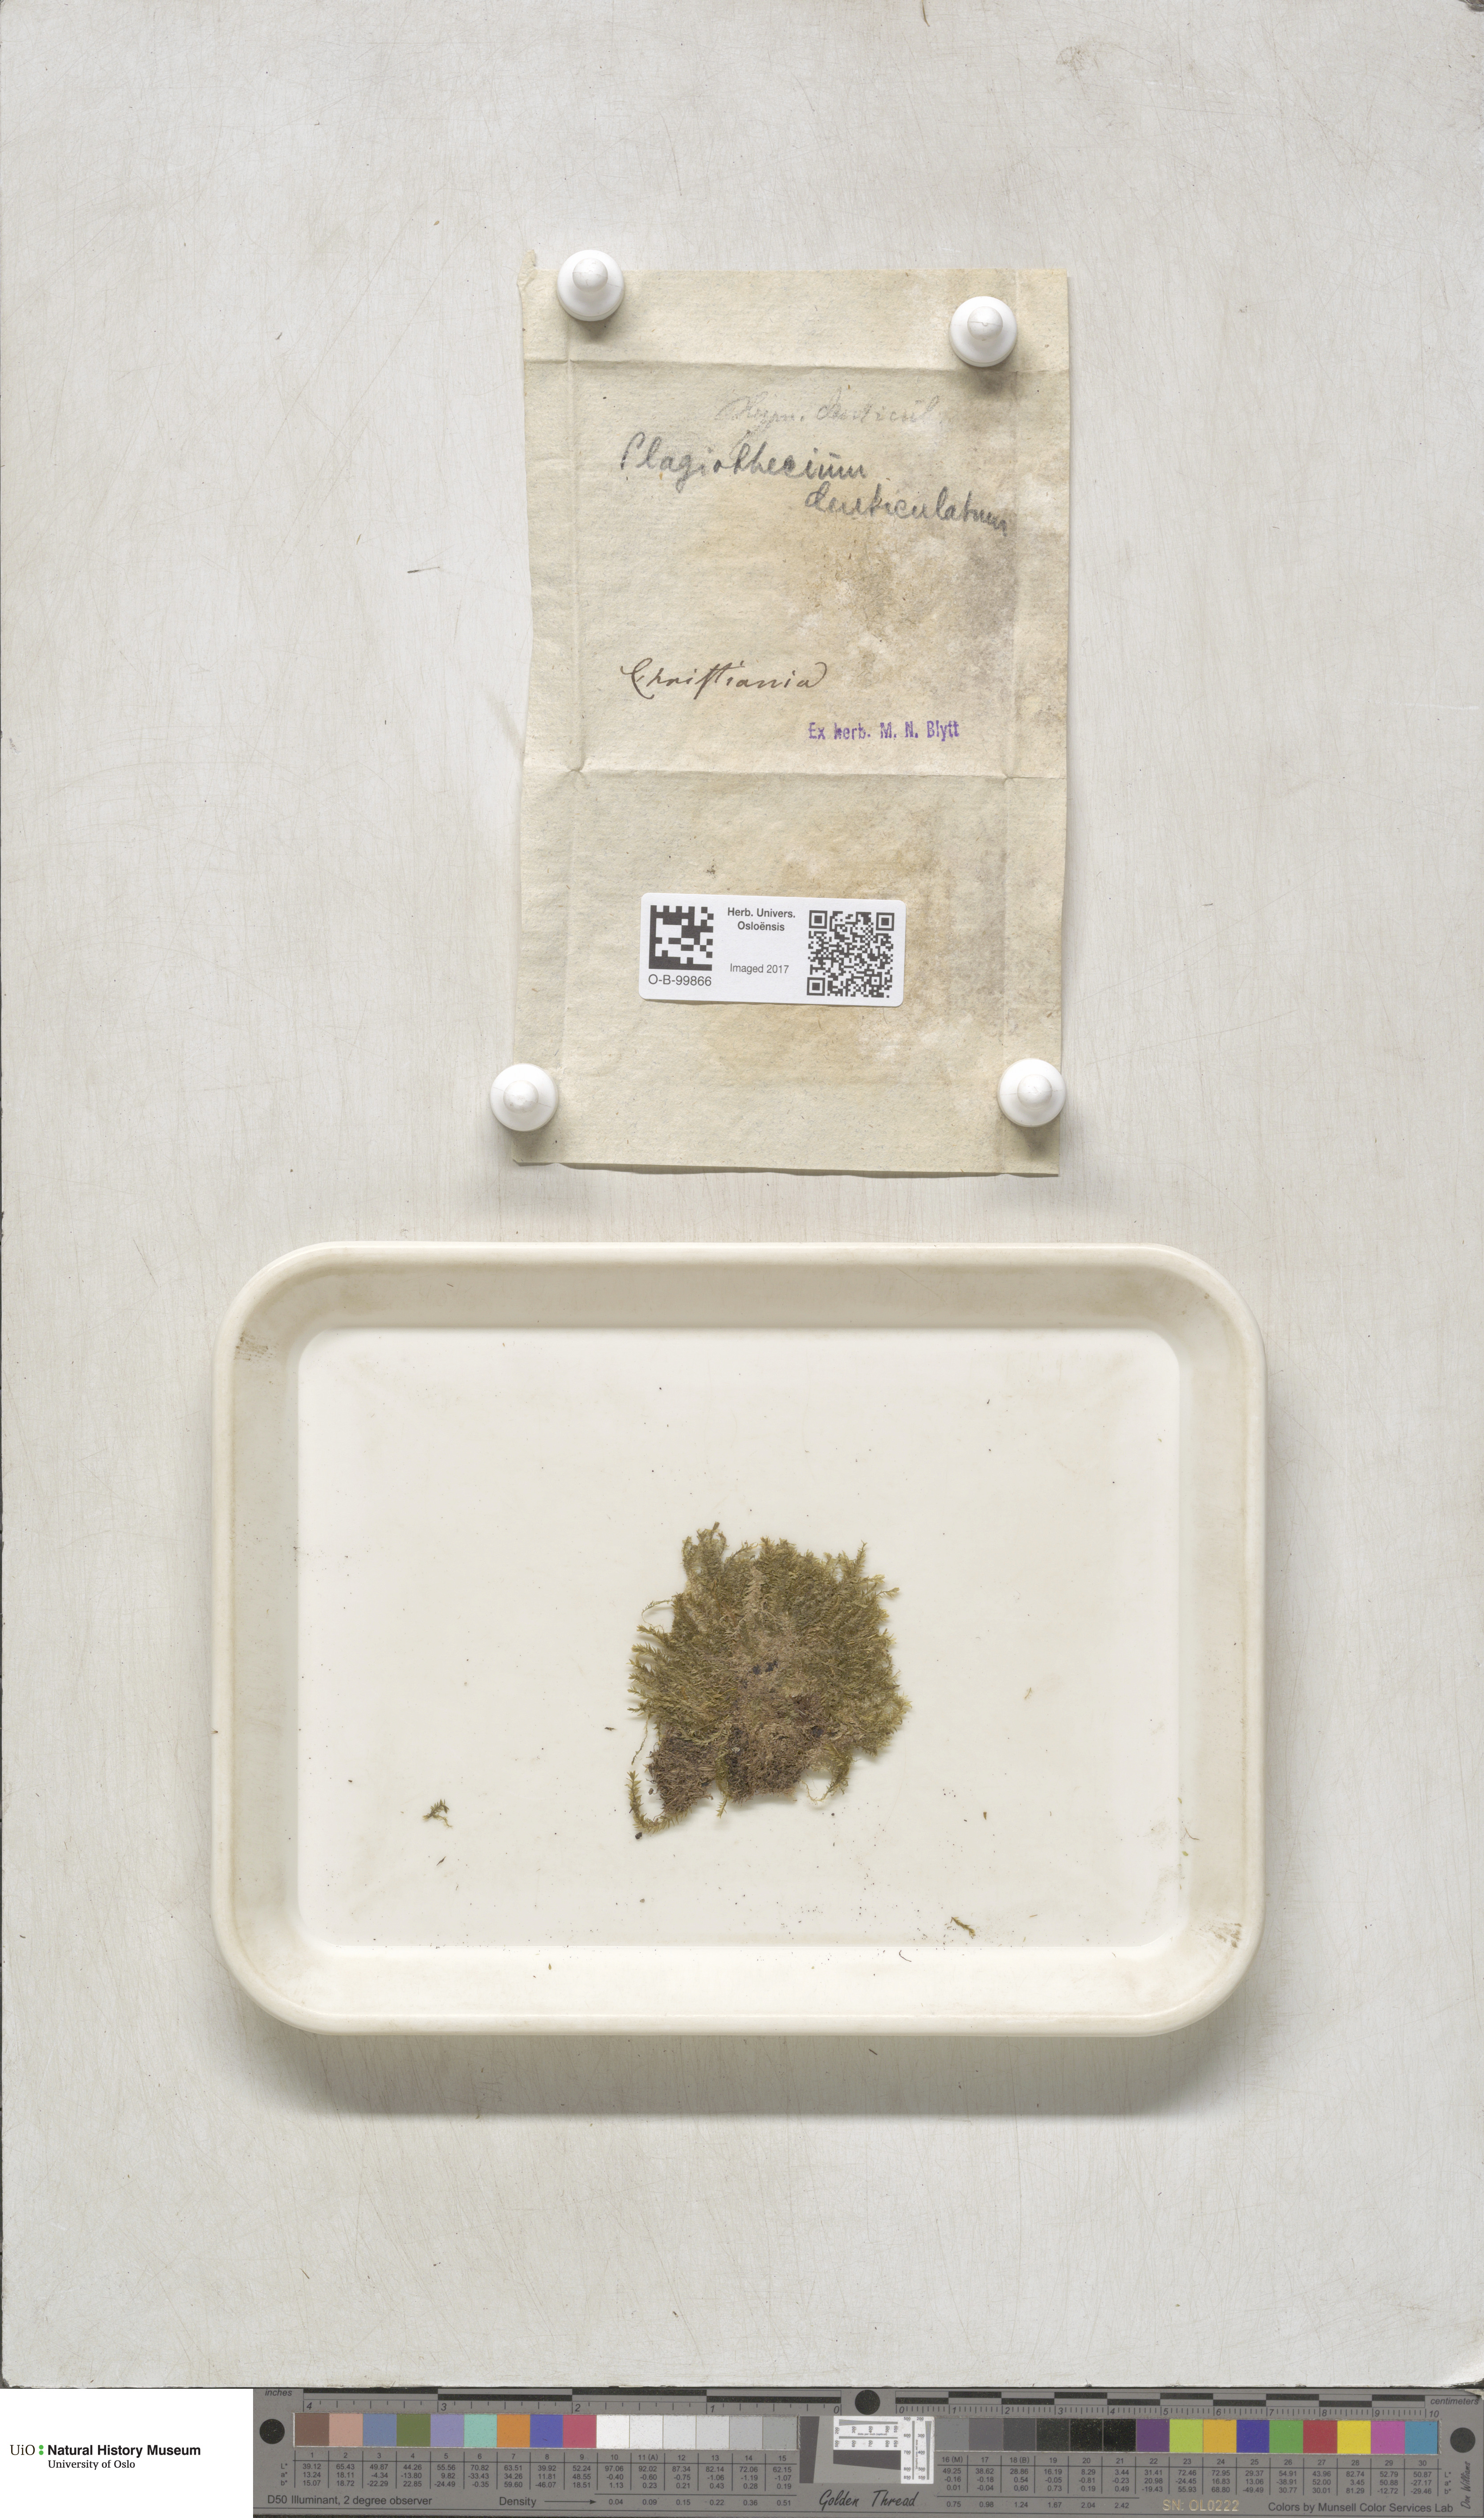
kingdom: Plantae
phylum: Bryophyta
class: Bryopsida
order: Hypnales
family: Plagiotheciaceae
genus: Plagiothecium
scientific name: Plagiothecium denticulatum
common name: Dented silk moss
